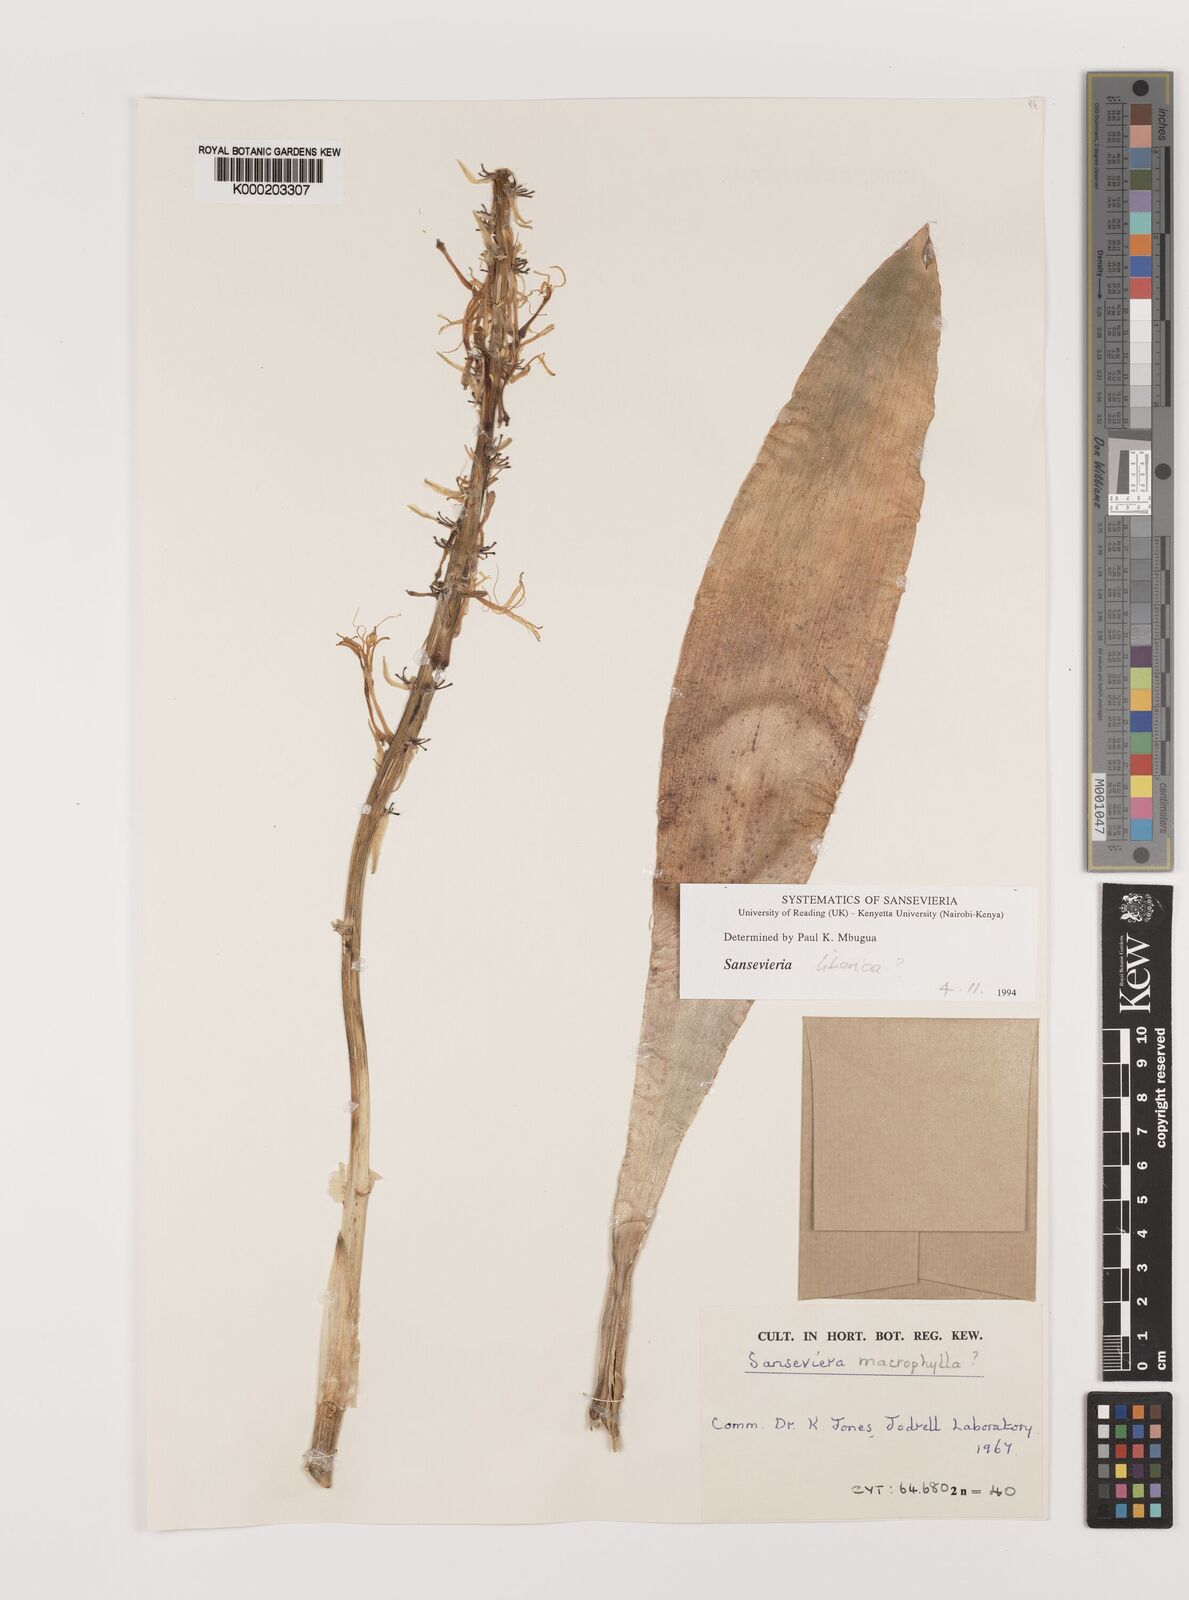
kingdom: Plantae
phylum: Tracheophyta
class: Liliopsida
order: Asparagales
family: Asparagaceae
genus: Dracaena
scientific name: Dracaena
